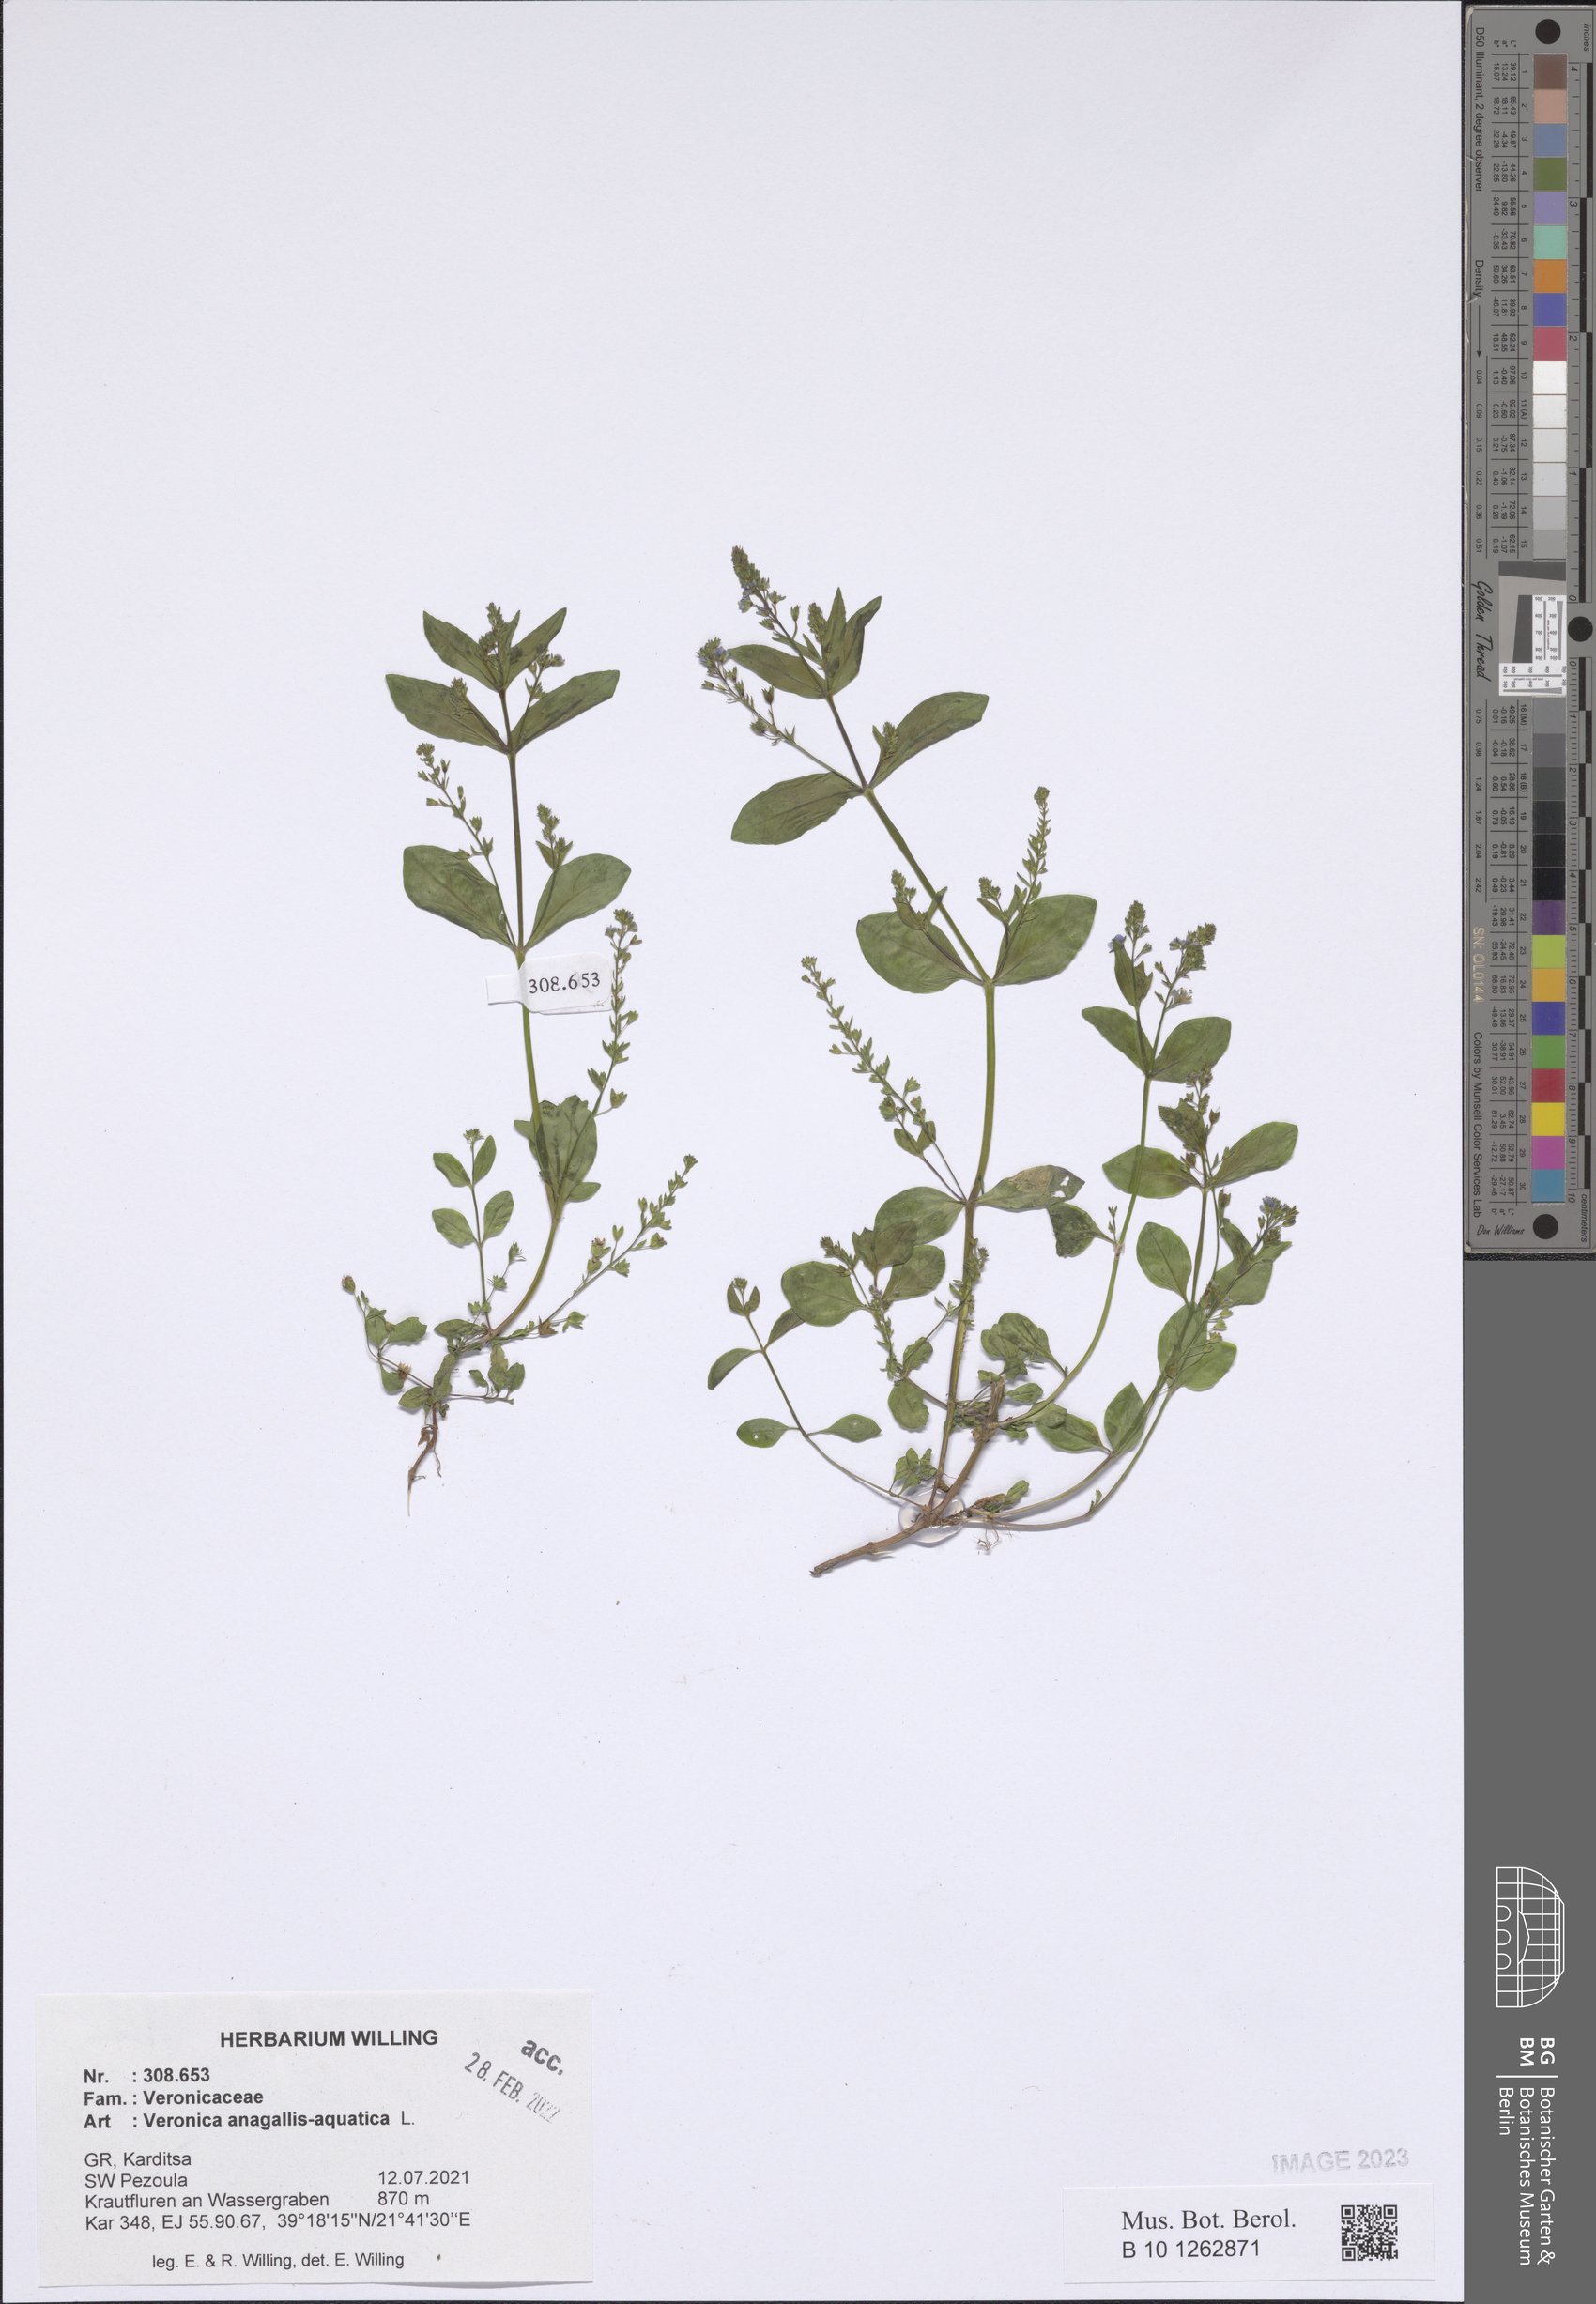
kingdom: Plantae
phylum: Tracheophyta
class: Magnoliopsida
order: Lamiales
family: Plantaginaceae
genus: Veronica
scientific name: Veronica anagallis-aquatica
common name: Water speedwell
